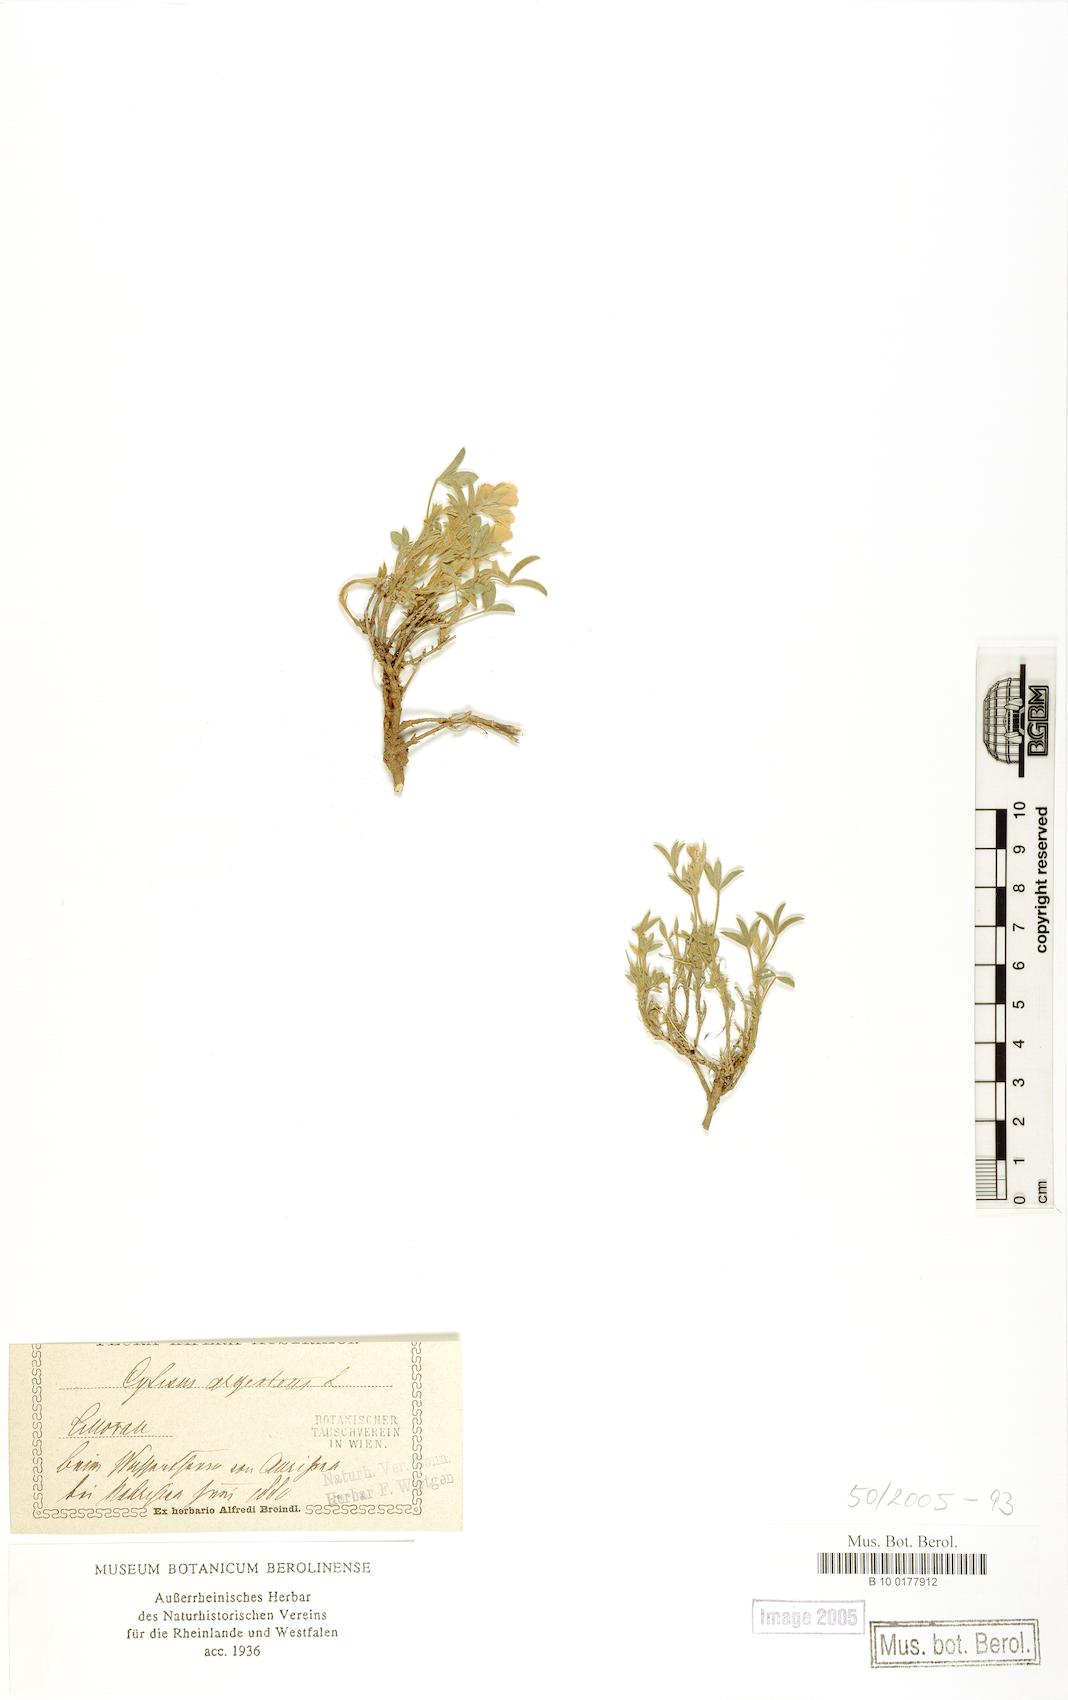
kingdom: Plantae
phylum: Tracheophyta
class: Magnoliopsida
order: Fabales
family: Fabaceae
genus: Argyrolobium
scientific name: Argyrolobium zanonii
